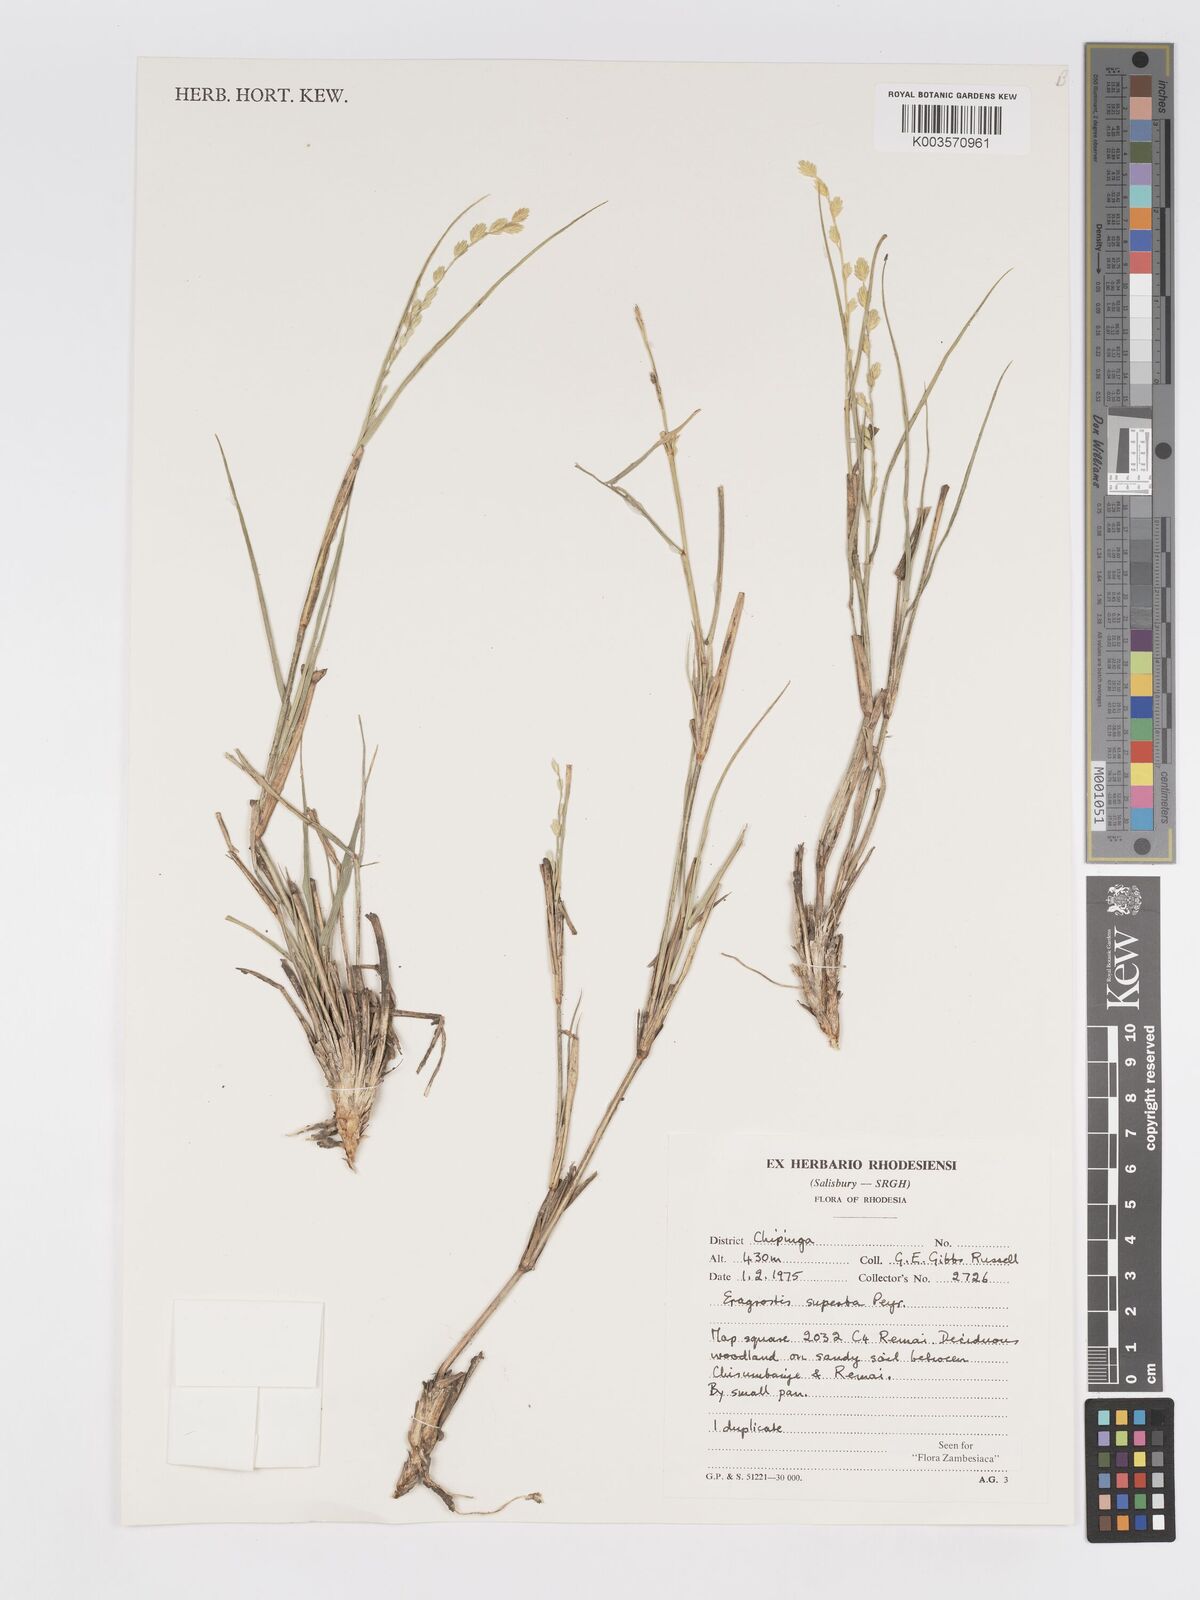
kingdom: Plantae
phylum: Tracheophyta
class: Liliopsida
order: Poales
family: Poaceae
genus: Eragrostis
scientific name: Eragrostis superba
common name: Wilman lovegrass
